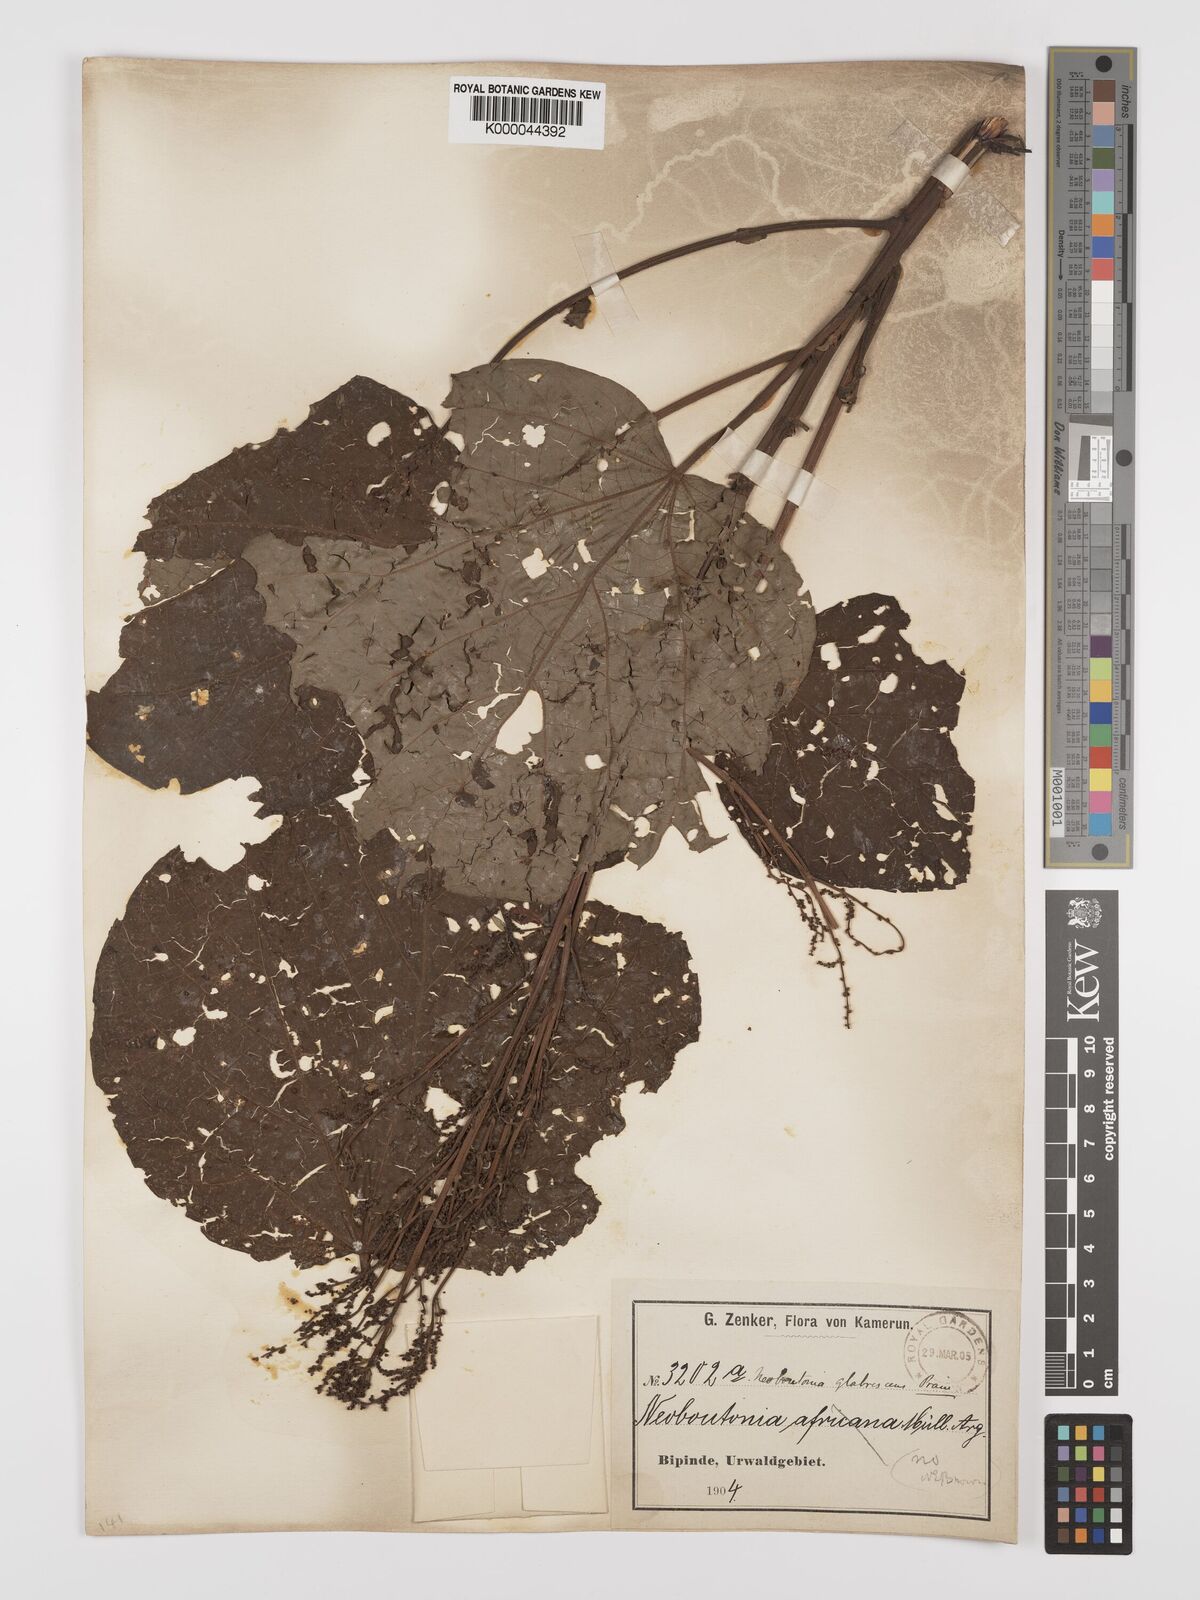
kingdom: Plantae
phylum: Tracheophyta
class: Magnoliopsida
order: Malpighiales
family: Euphorbiaceae
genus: Neoboutonia
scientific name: Neoboutonia mannii
